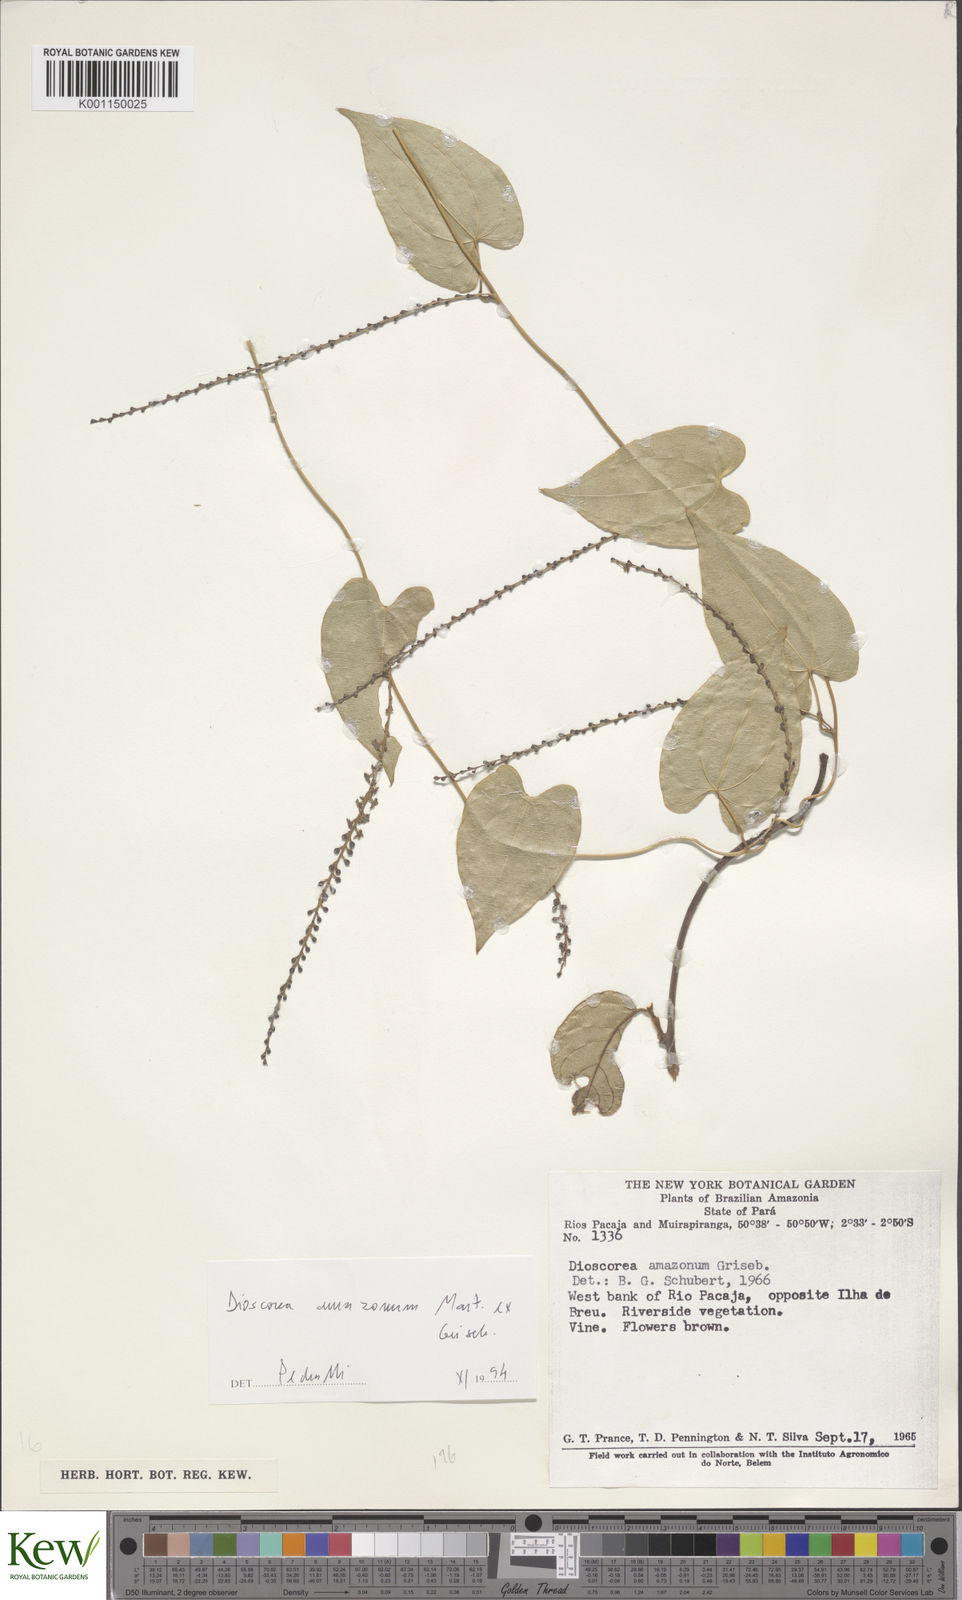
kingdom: Plantae
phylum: Tracheophyta
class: Liliopsida
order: Dioscoreales
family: Dioscoreaceae
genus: Dioscorea
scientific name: Dioscorea amazonum
